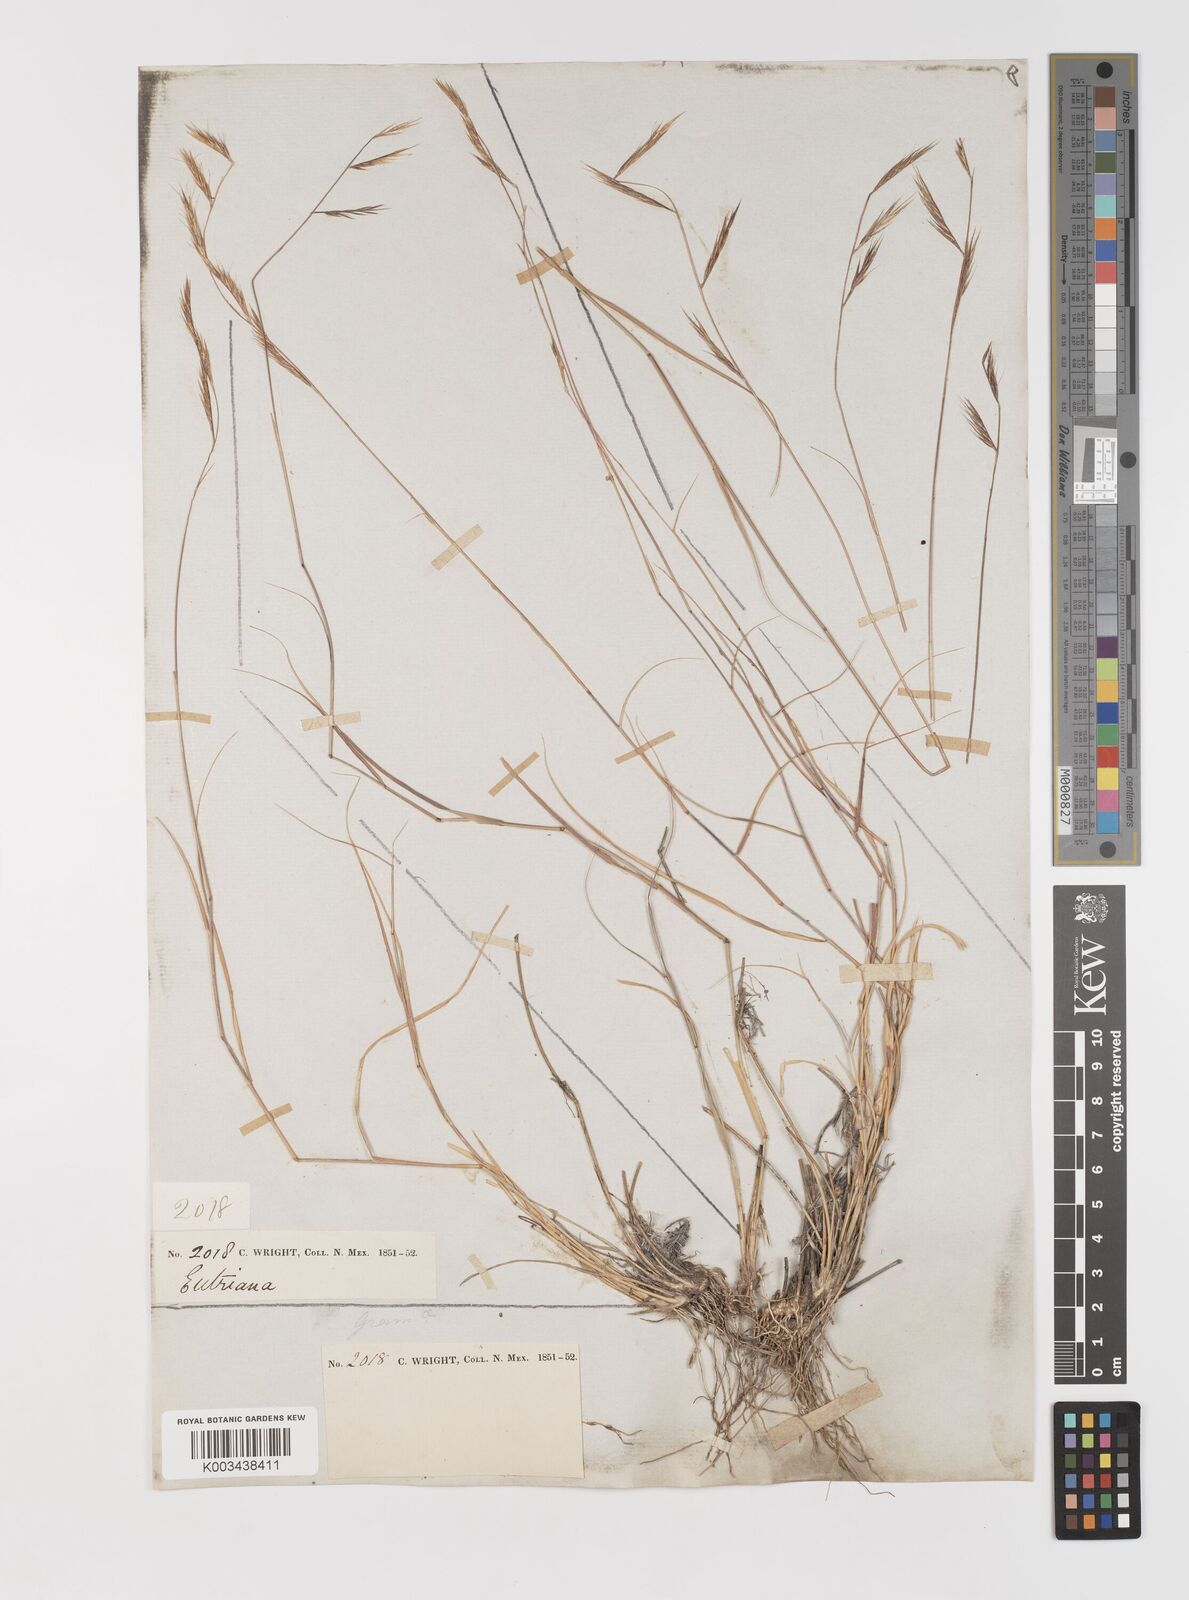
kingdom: Plantae
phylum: Tracheophyta
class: Liliopsida
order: Poales
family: Poaceae
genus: Bouteloua
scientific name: Bouteloua eriopoda
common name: Woolly foot grama
